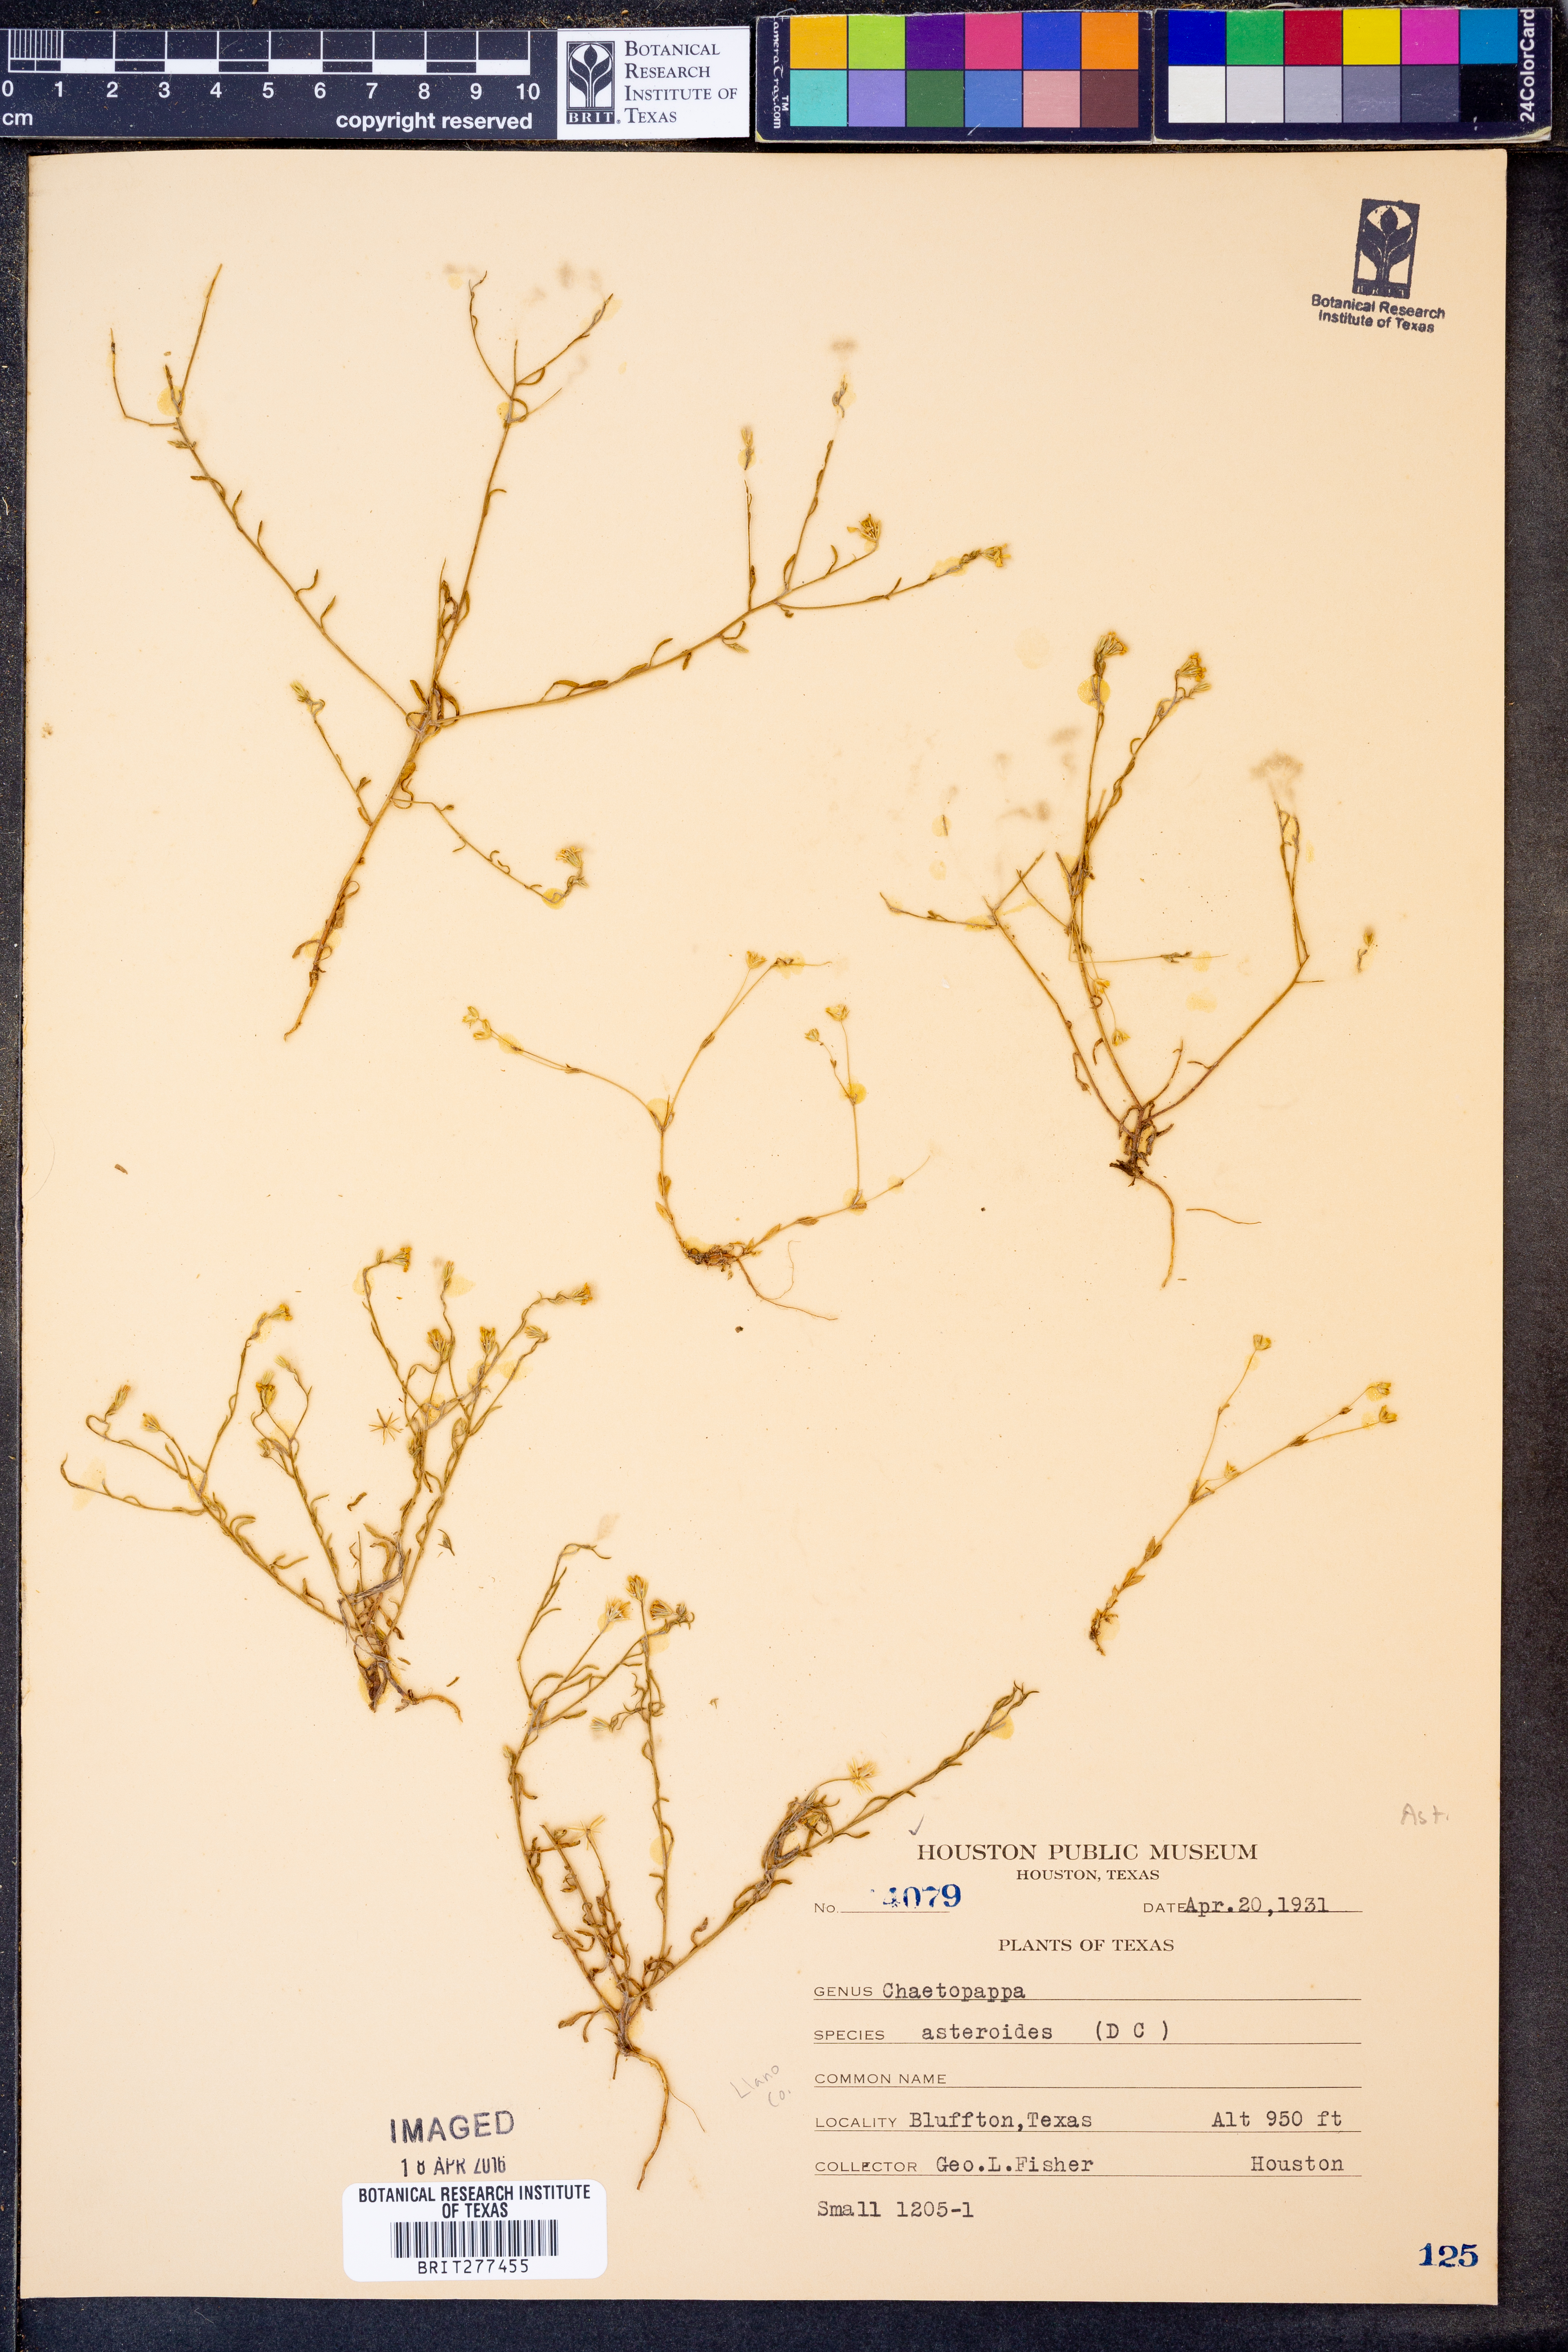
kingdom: Plantae
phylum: Tracheophyta
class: Magnoliopsida
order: Asterales
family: Asteraceae
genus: Chaetopappa
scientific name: Chaetopappa asteroides
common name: Tiny lazy daisy
